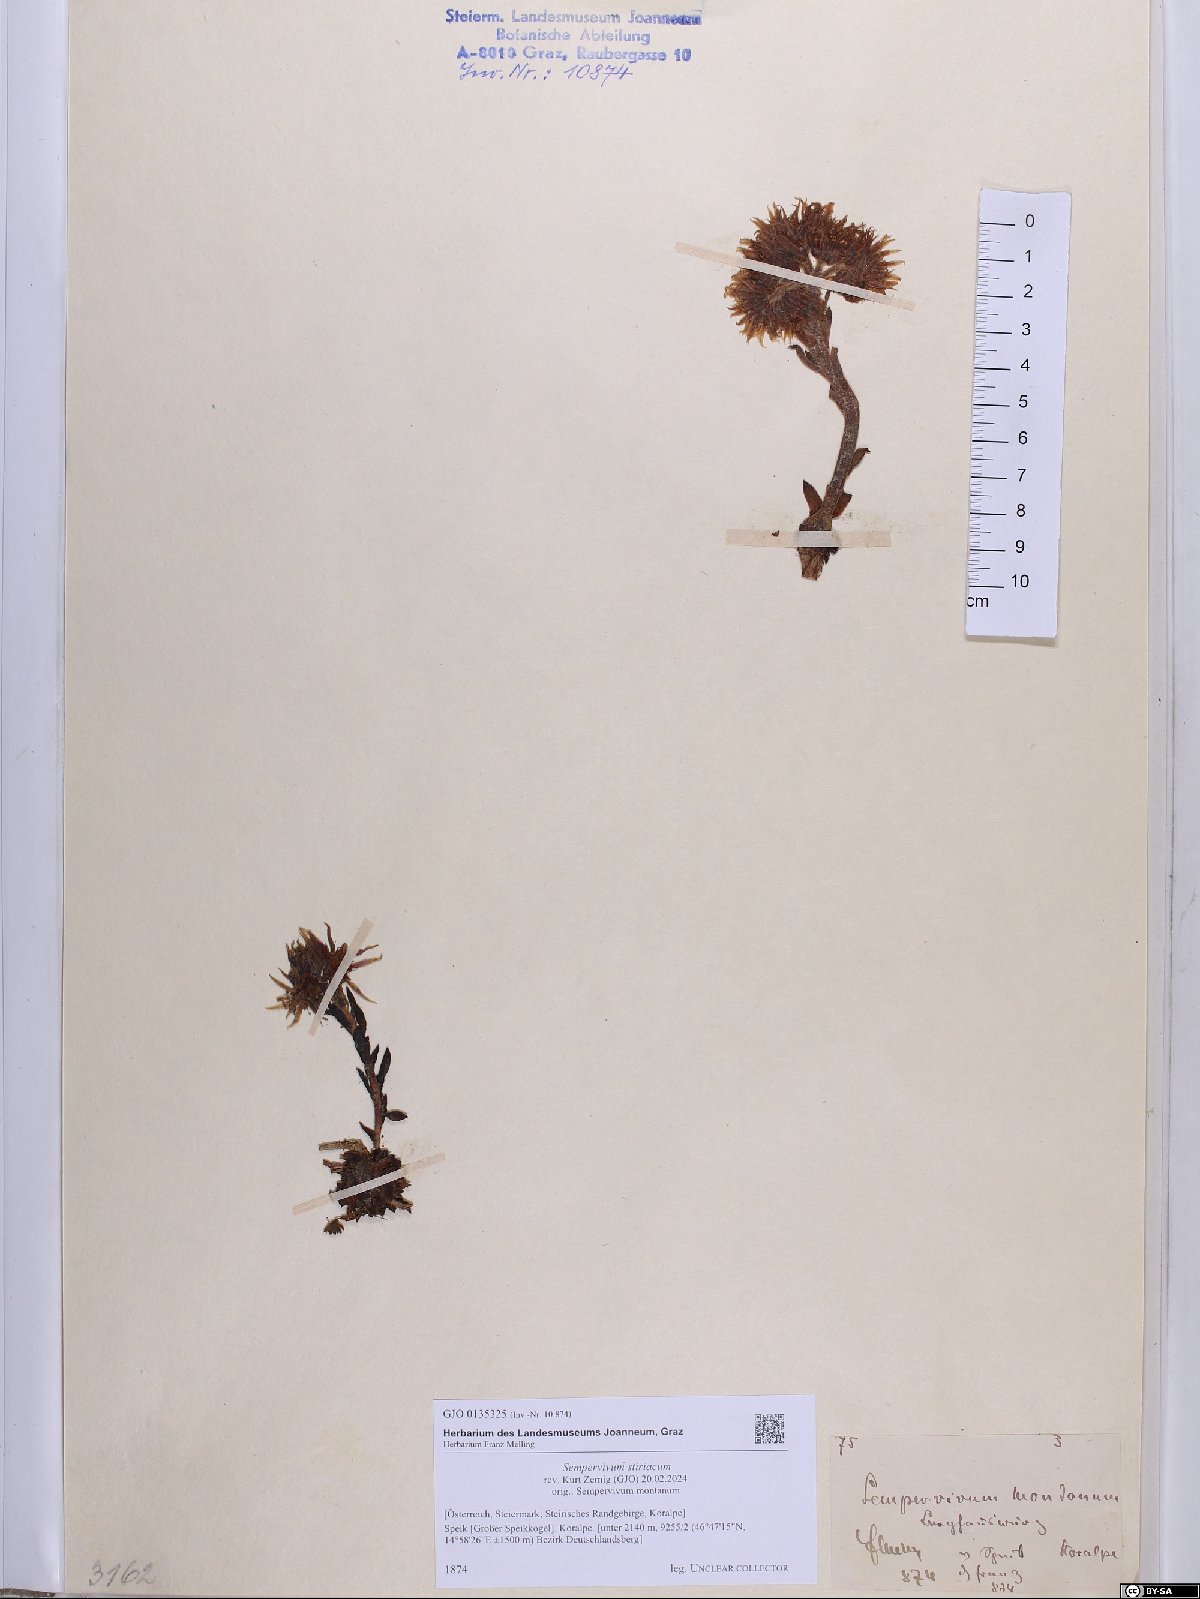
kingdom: Plantae
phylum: Tracheophyta
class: Magnoliopsida
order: Saxifragales
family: Crassulaceae
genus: Sempervivum
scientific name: Sempervivum montanum
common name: Mountain house-leek
